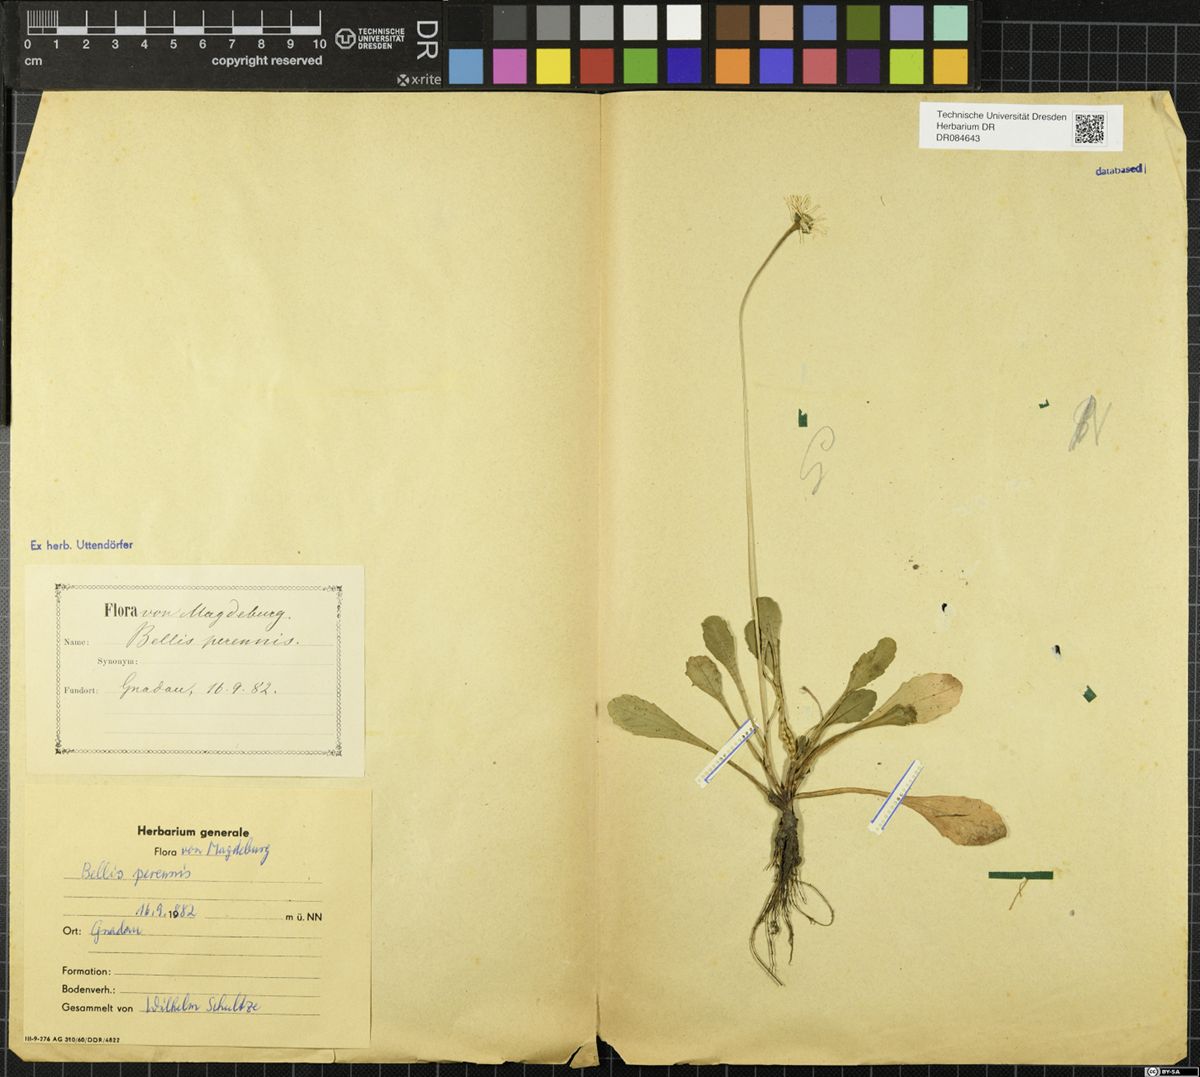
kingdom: Plantae
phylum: Tracheophyta
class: Magnoliopsida
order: Asterales
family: Asteraceae
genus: Bellis
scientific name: Bellis perennis
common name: Lawndaisy
